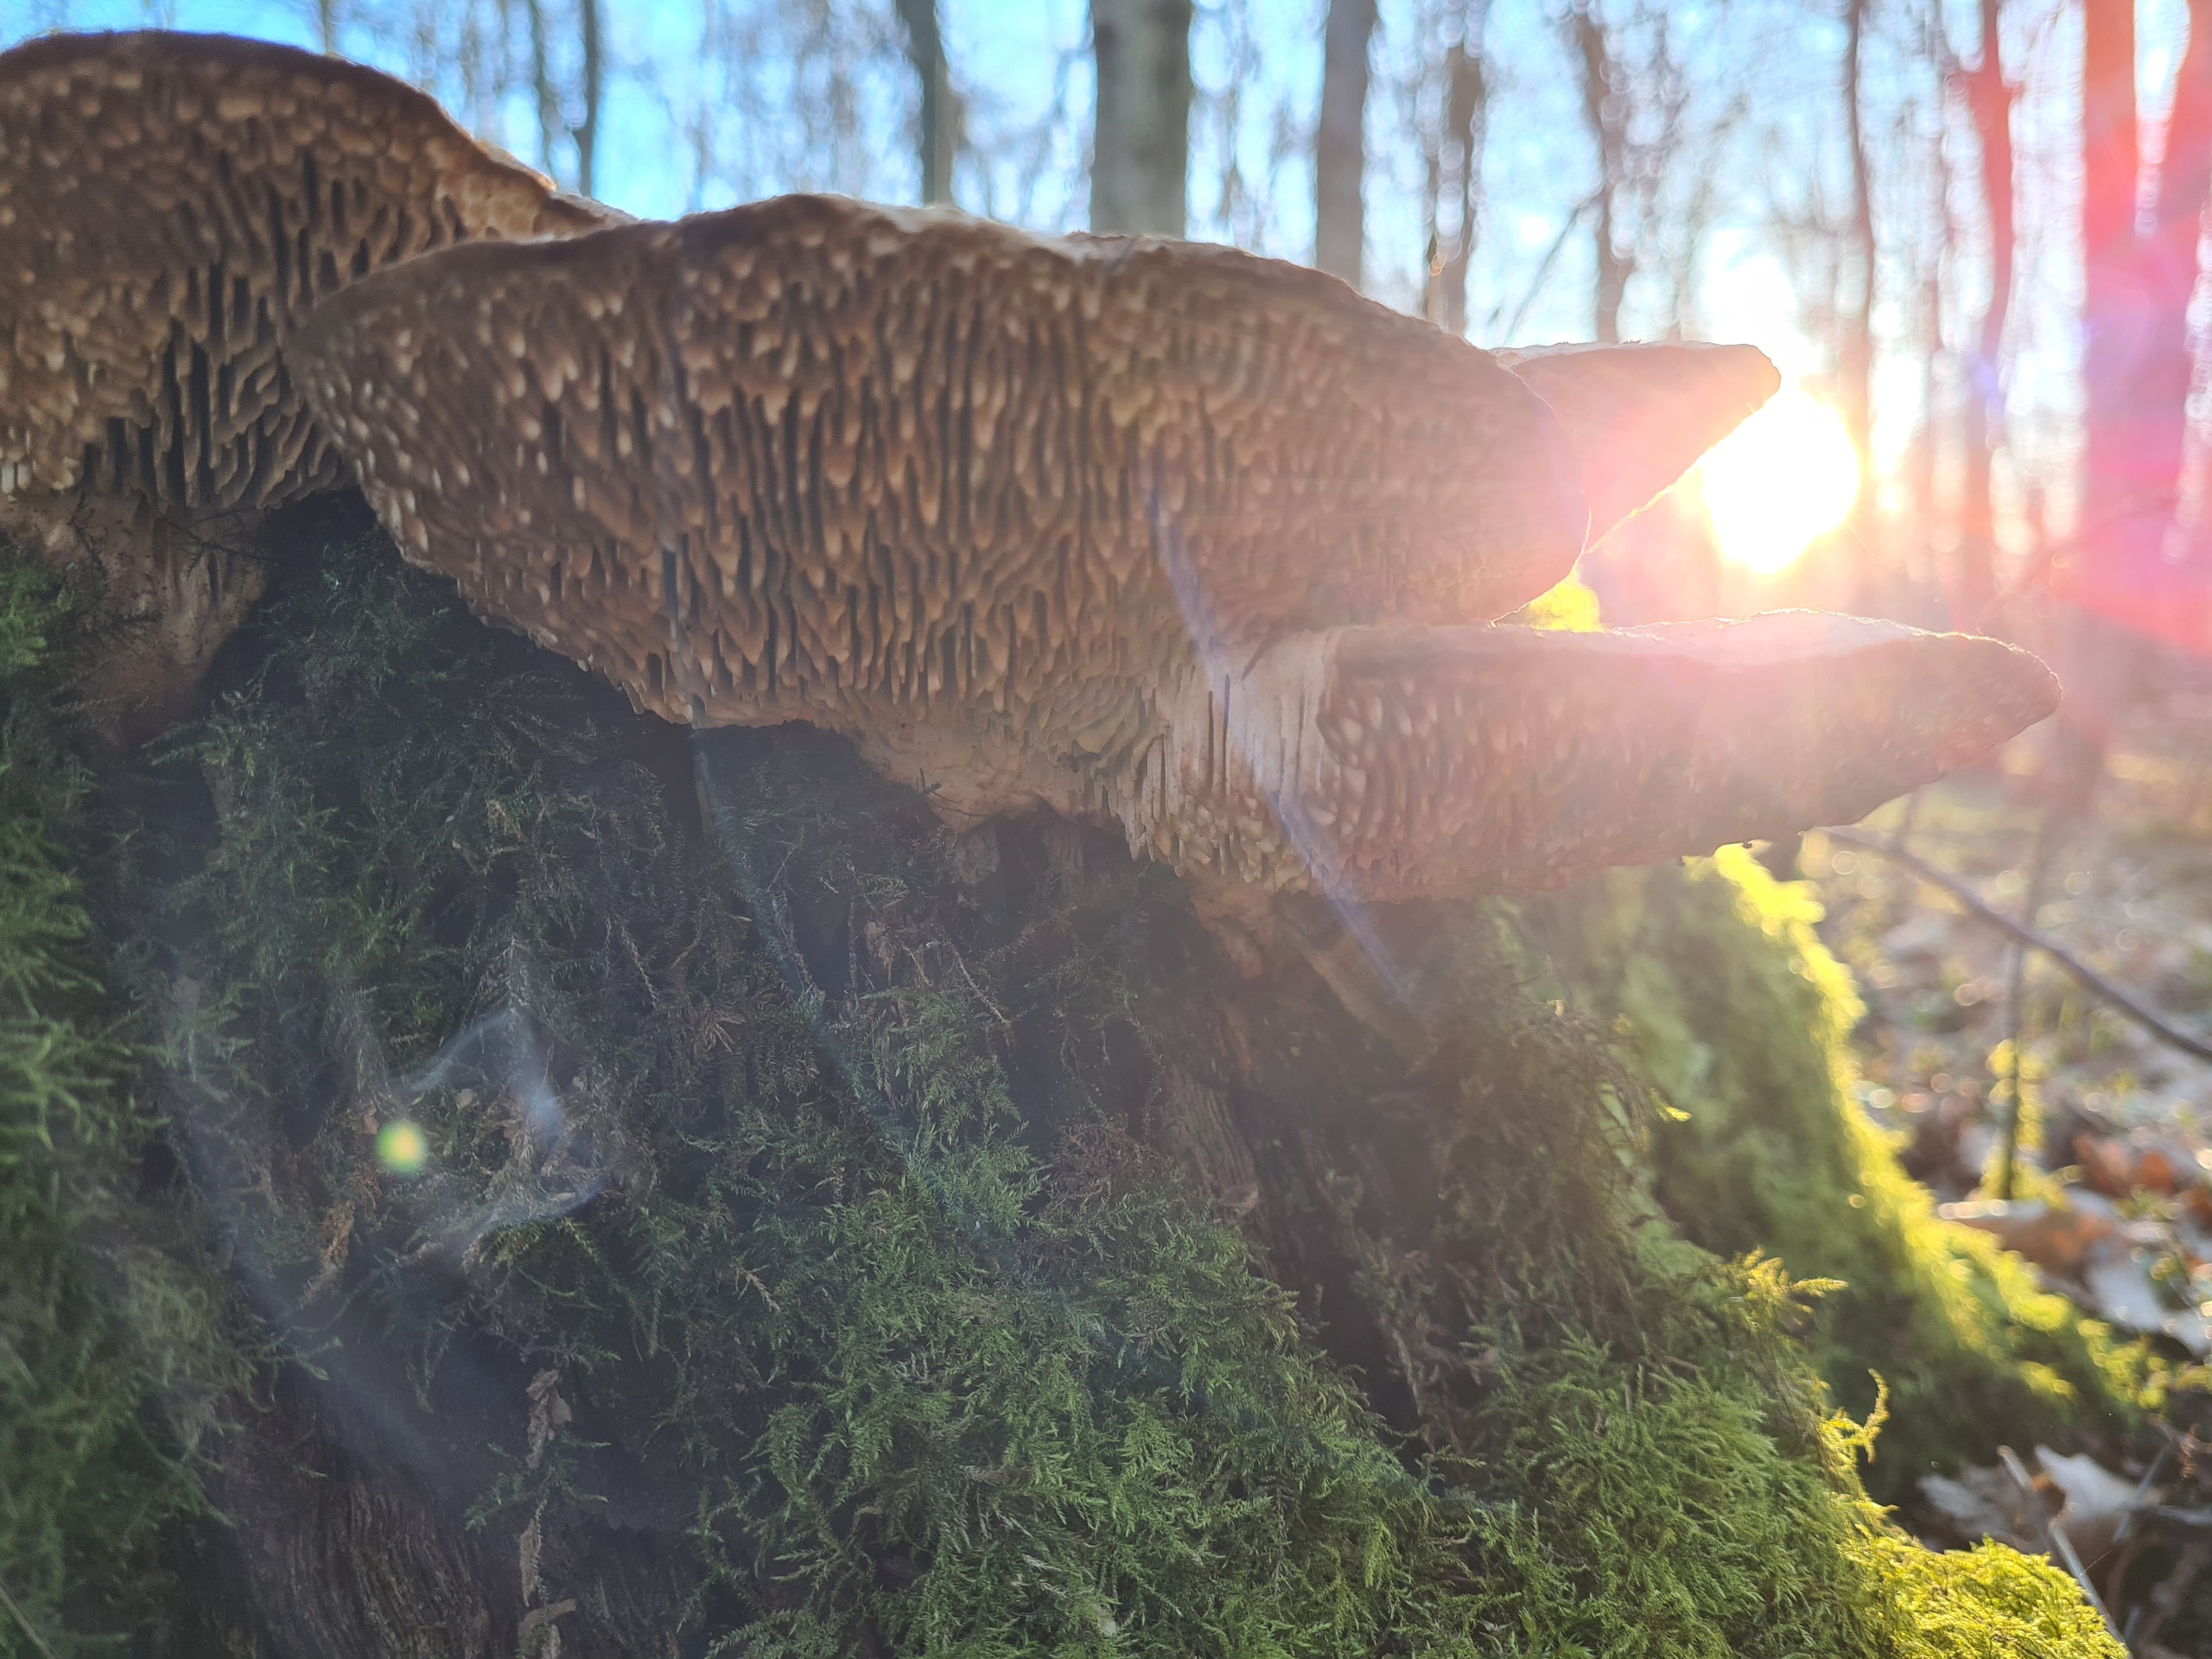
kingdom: Fungi
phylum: Basidiomycota
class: Agaricomycetes
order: Polyporales
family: Fomitopsidaceae
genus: Daedalea
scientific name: Daedalea quercina
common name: Ege-labyrintsvamp
